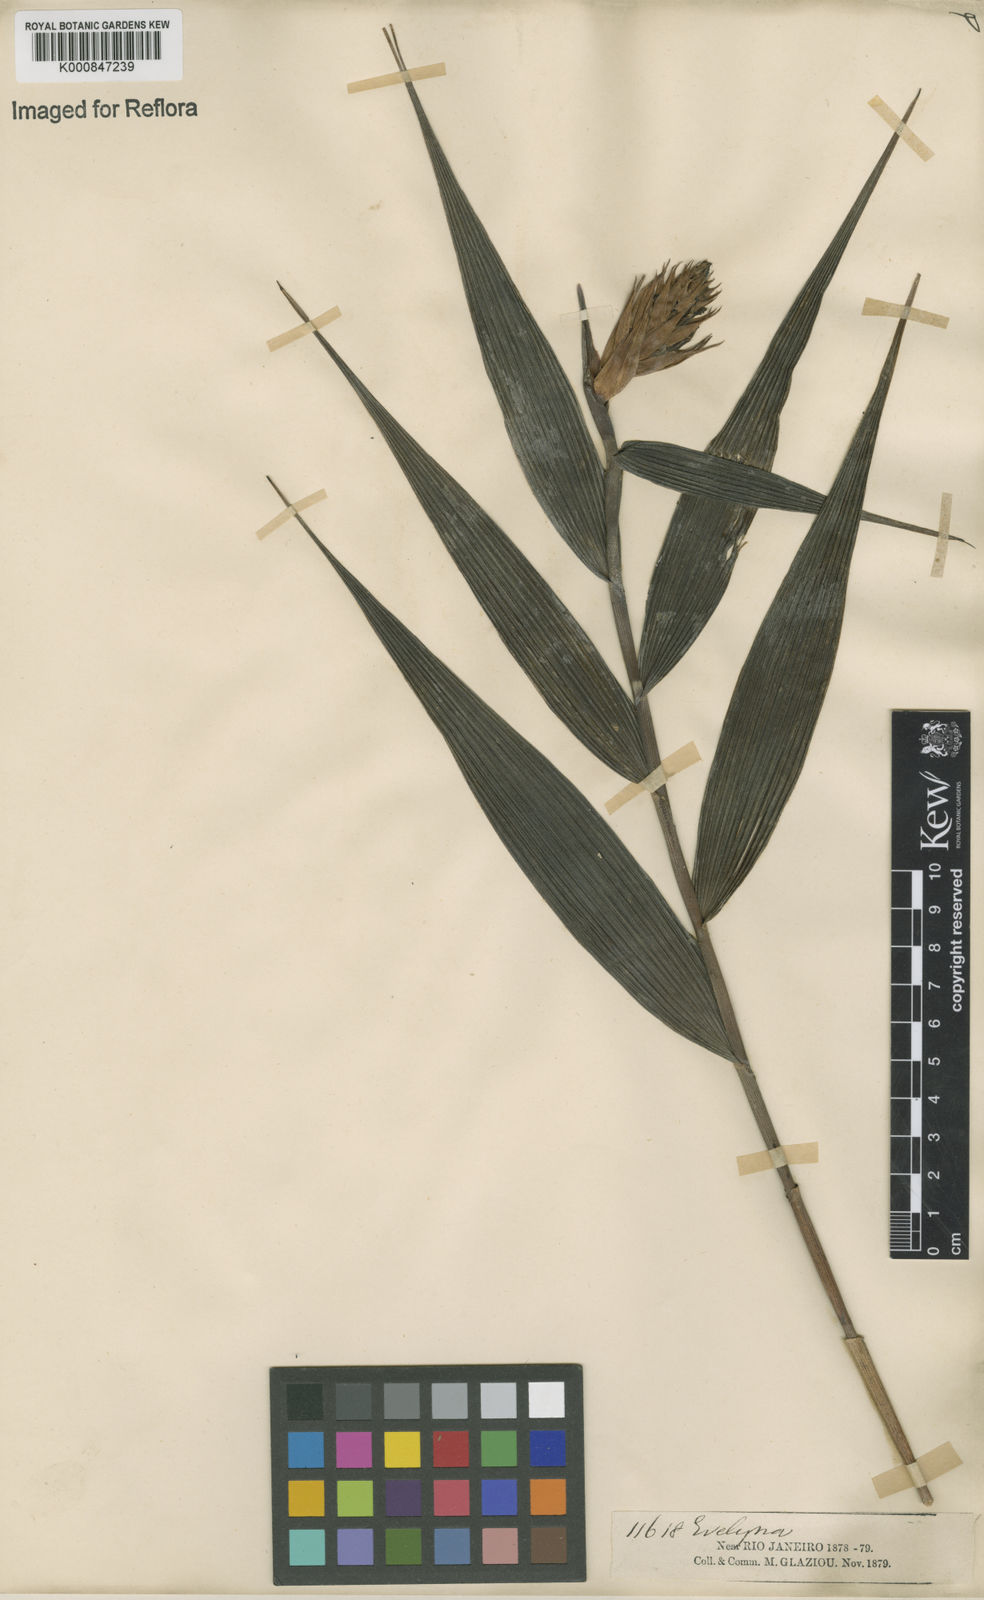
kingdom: Plantae
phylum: Tracheophyta
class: Liliopsida
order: Asparagales
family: Orchidaceae
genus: Elleanthus
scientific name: Elleanthus caravata
